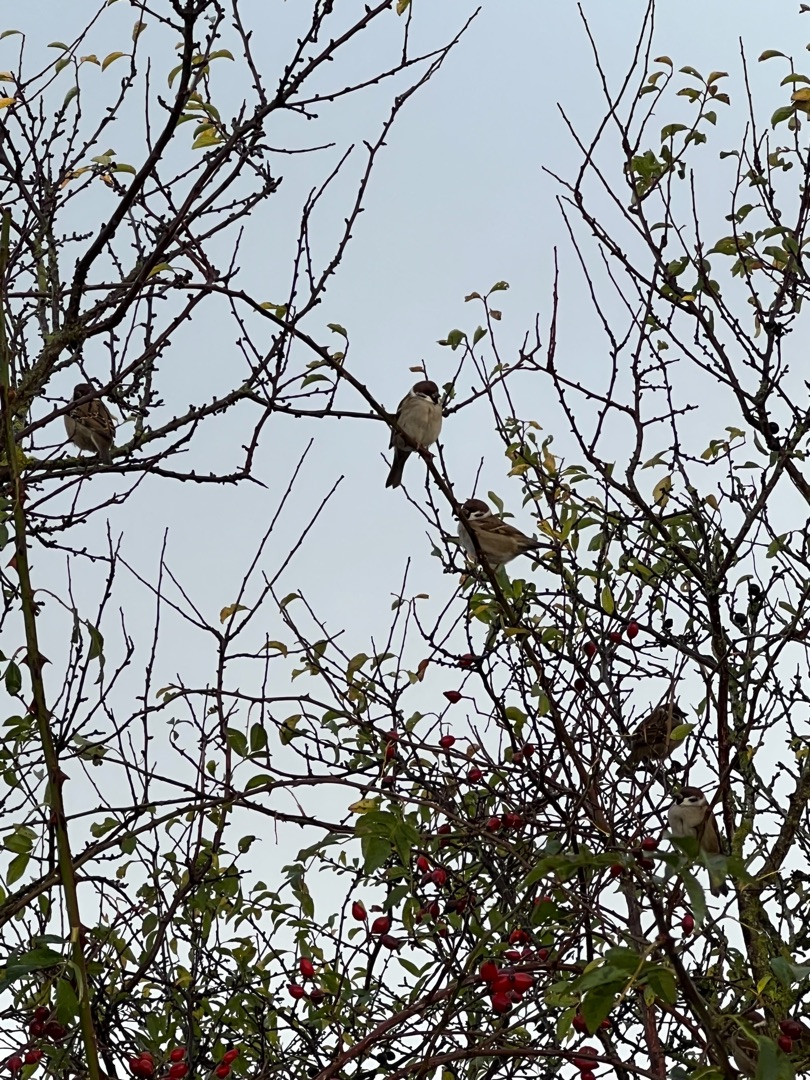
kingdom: Animalia
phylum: Chordata
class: Aves
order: Passeriformes
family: Passeridae
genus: Passer
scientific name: Passer montanus
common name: Skovspurv
